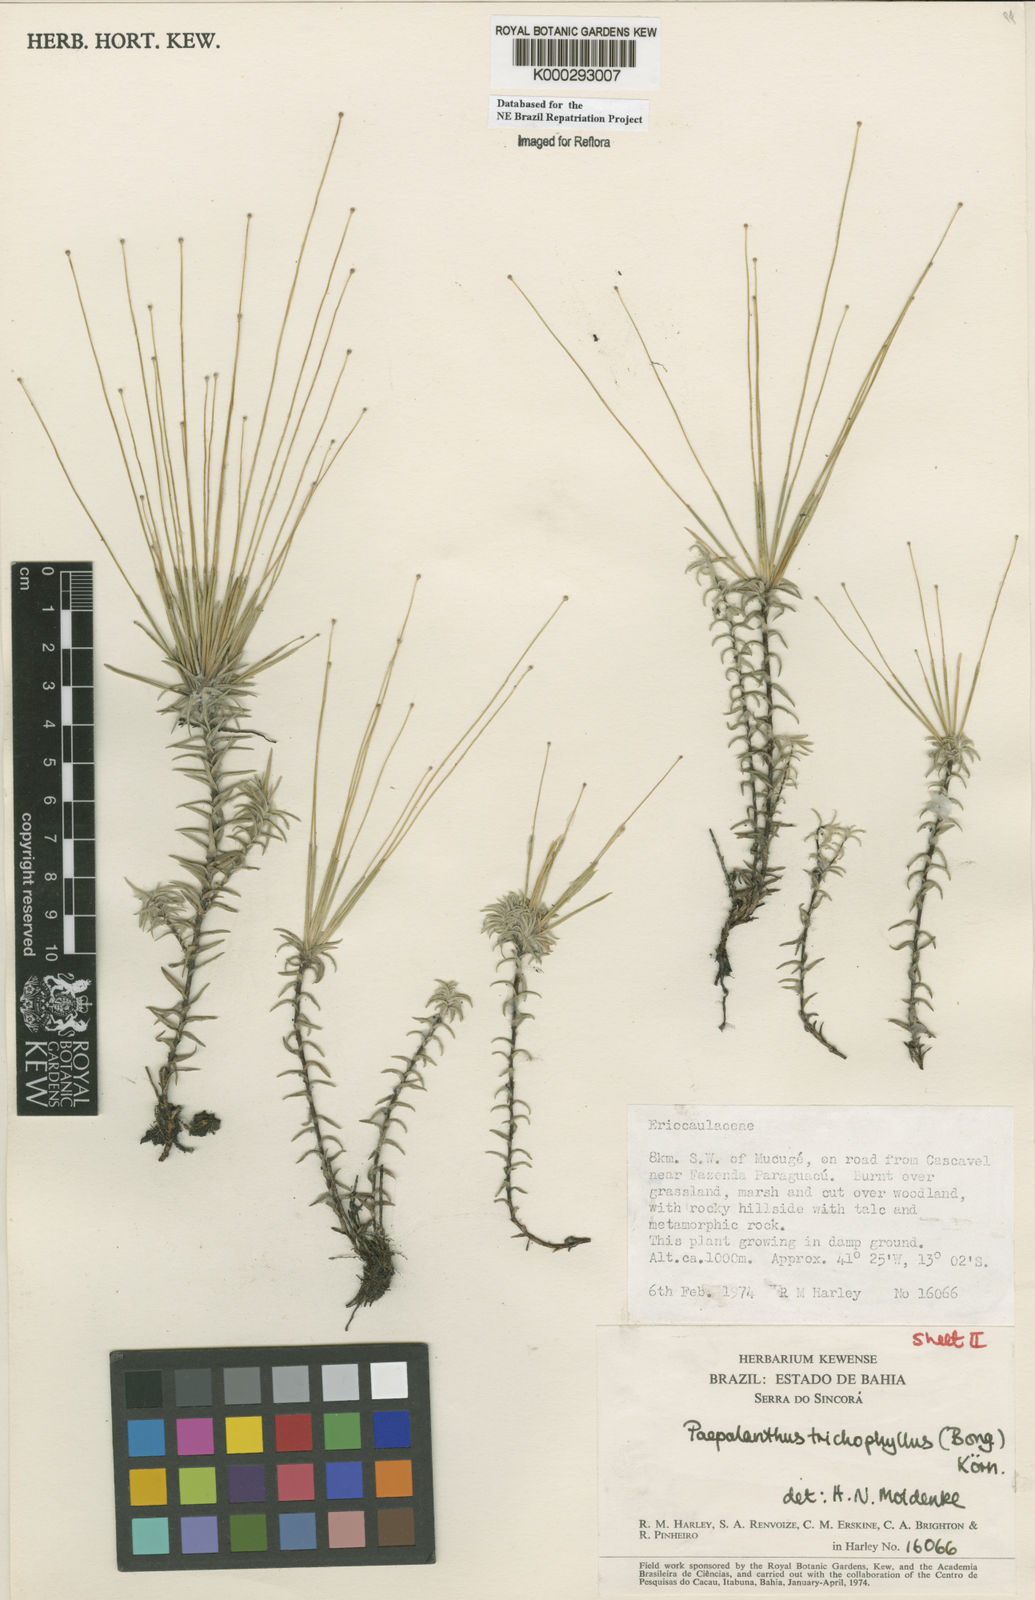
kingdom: Plantae
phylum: Tracheophyta
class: Liliopsida
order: Poales
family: Eriocaulaceae
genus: Paepalanthus
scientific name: Paepalanthus
